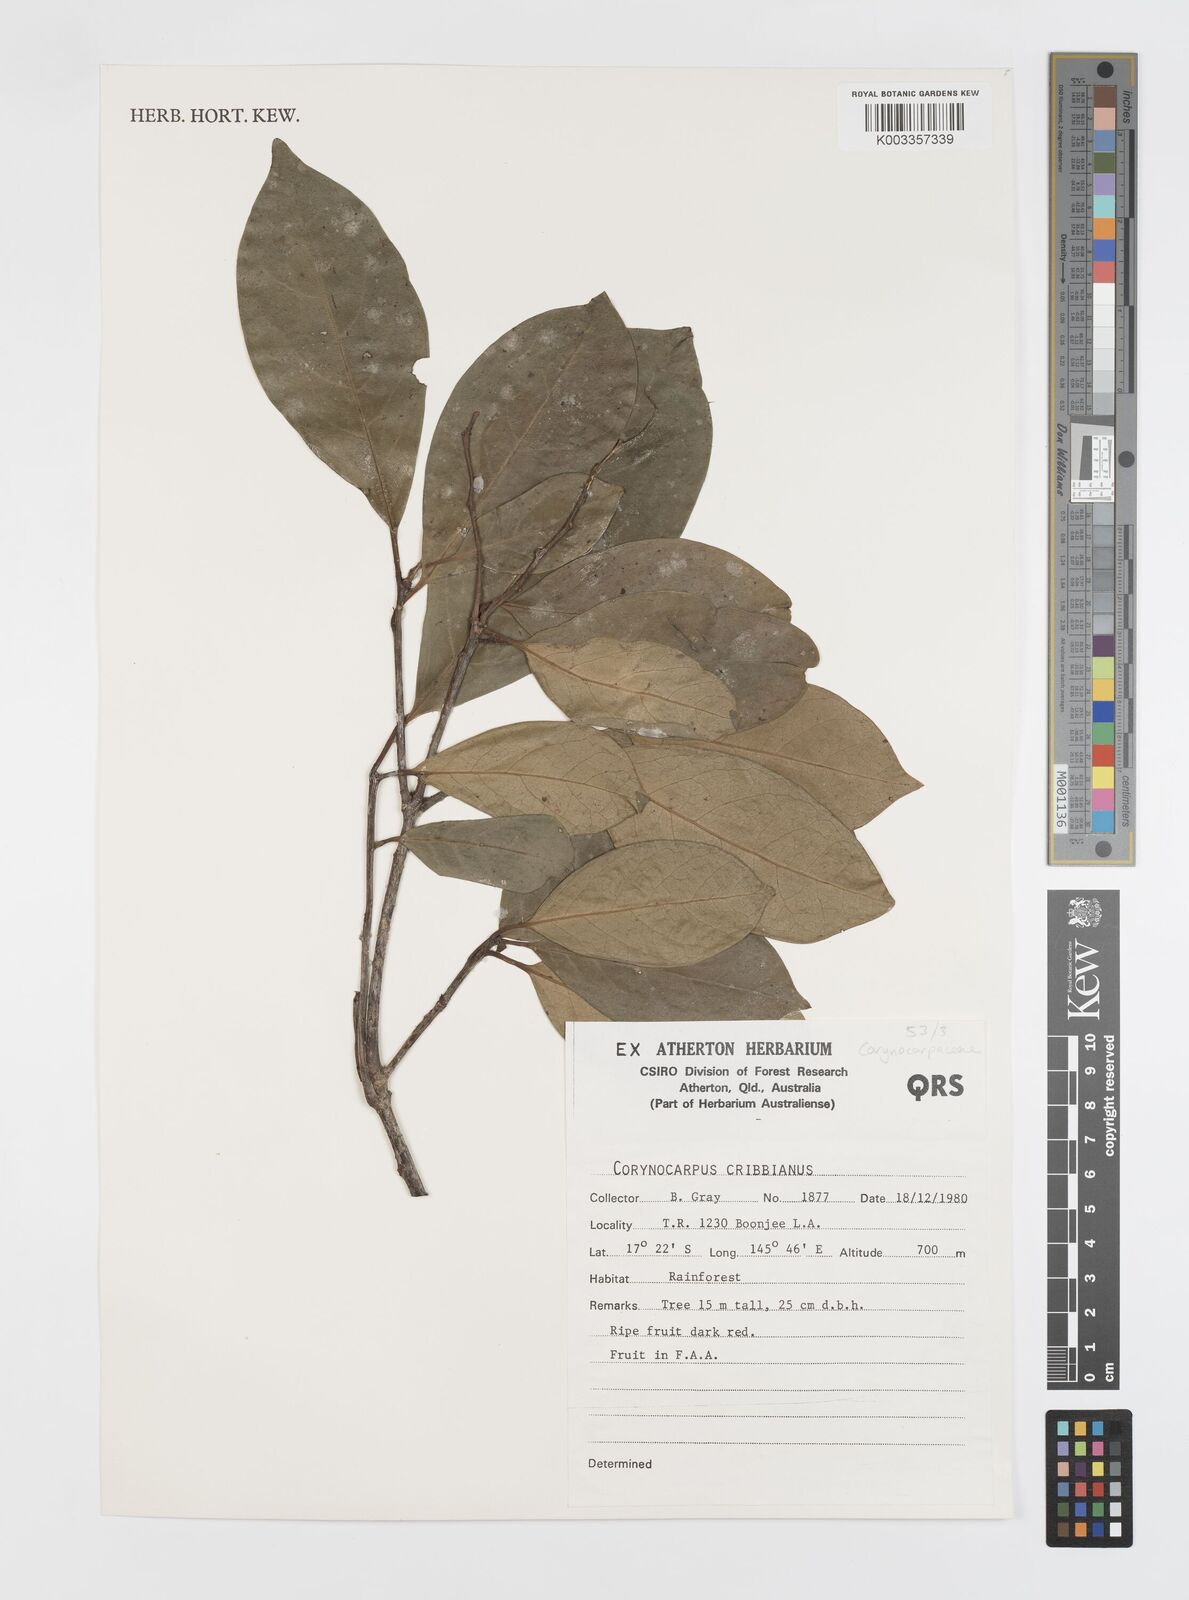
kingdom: Plantae
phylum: Tracheophyta
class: Magnoliopsida
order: Cucurbitales
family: Corynocarpaceae
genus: Corynocarpus
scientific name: Corynocarpus cribbianus
